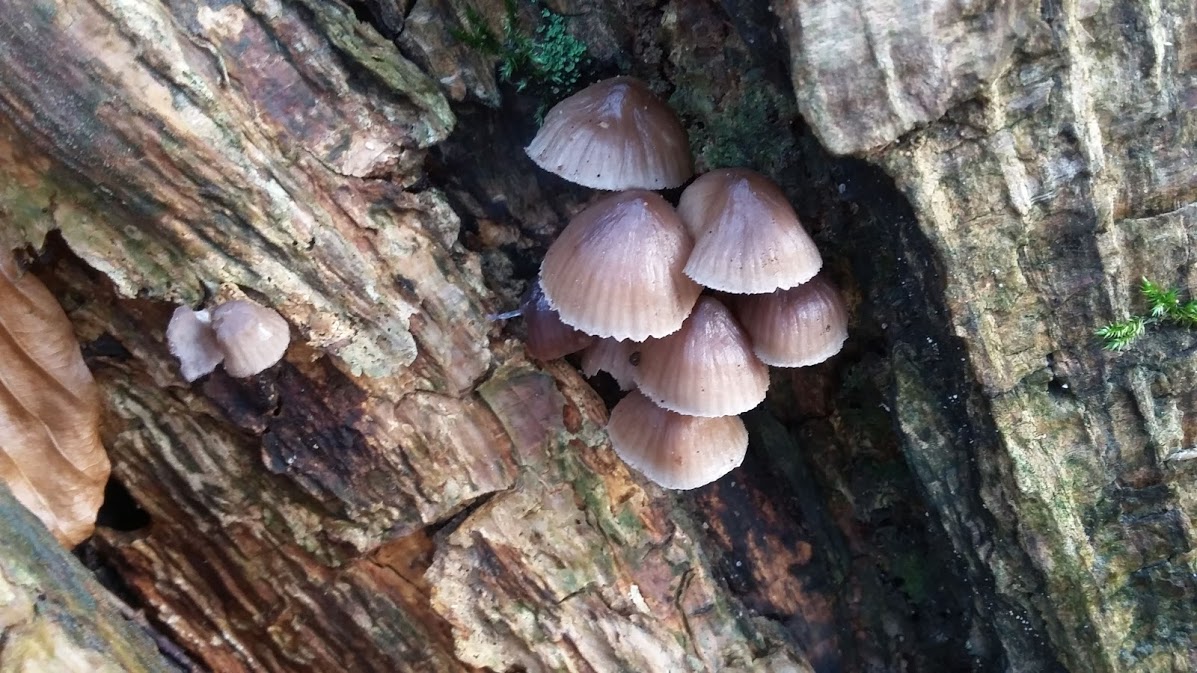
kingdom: Fungi
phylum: Basidiomycota
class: Agaricomycetes
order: Agaricales
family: Mycenaceae
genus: Mycena
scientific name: Mycena tintinnabulum
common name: vinter-huesvamp
